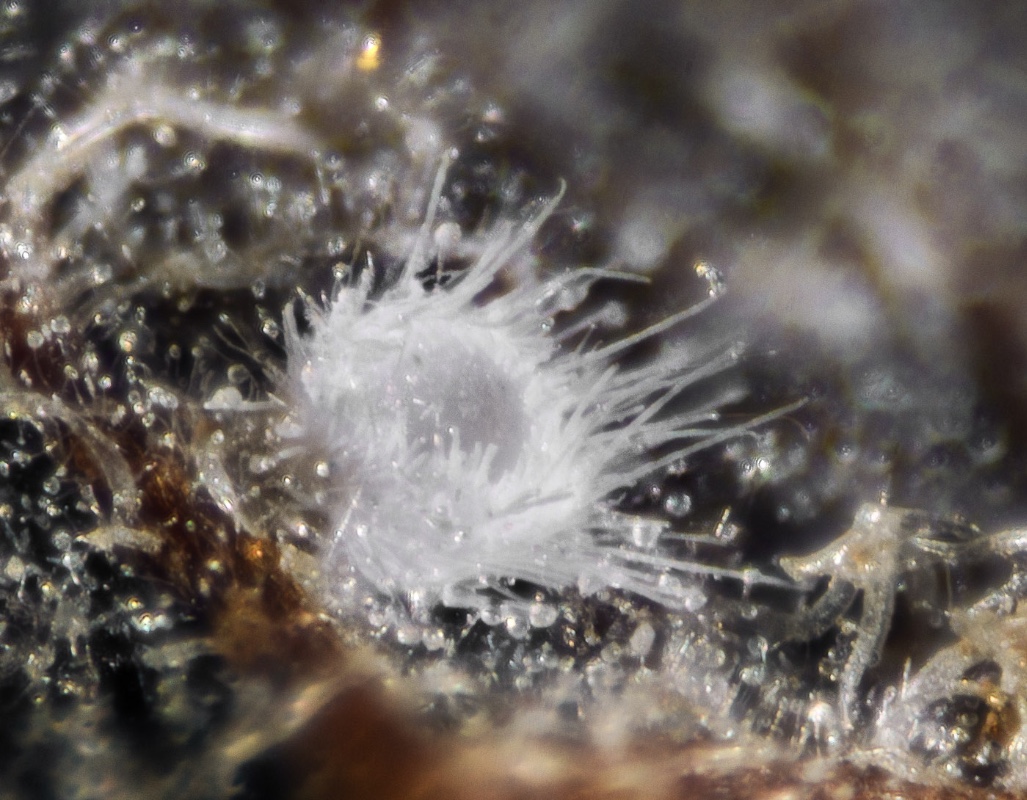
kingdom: Fungi
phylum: Basidiomycota
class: Agaricomycetes
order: Agaricales
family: Cyphellaceae
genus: Seticyphella
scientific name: Seticyphella
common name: hængeskål
